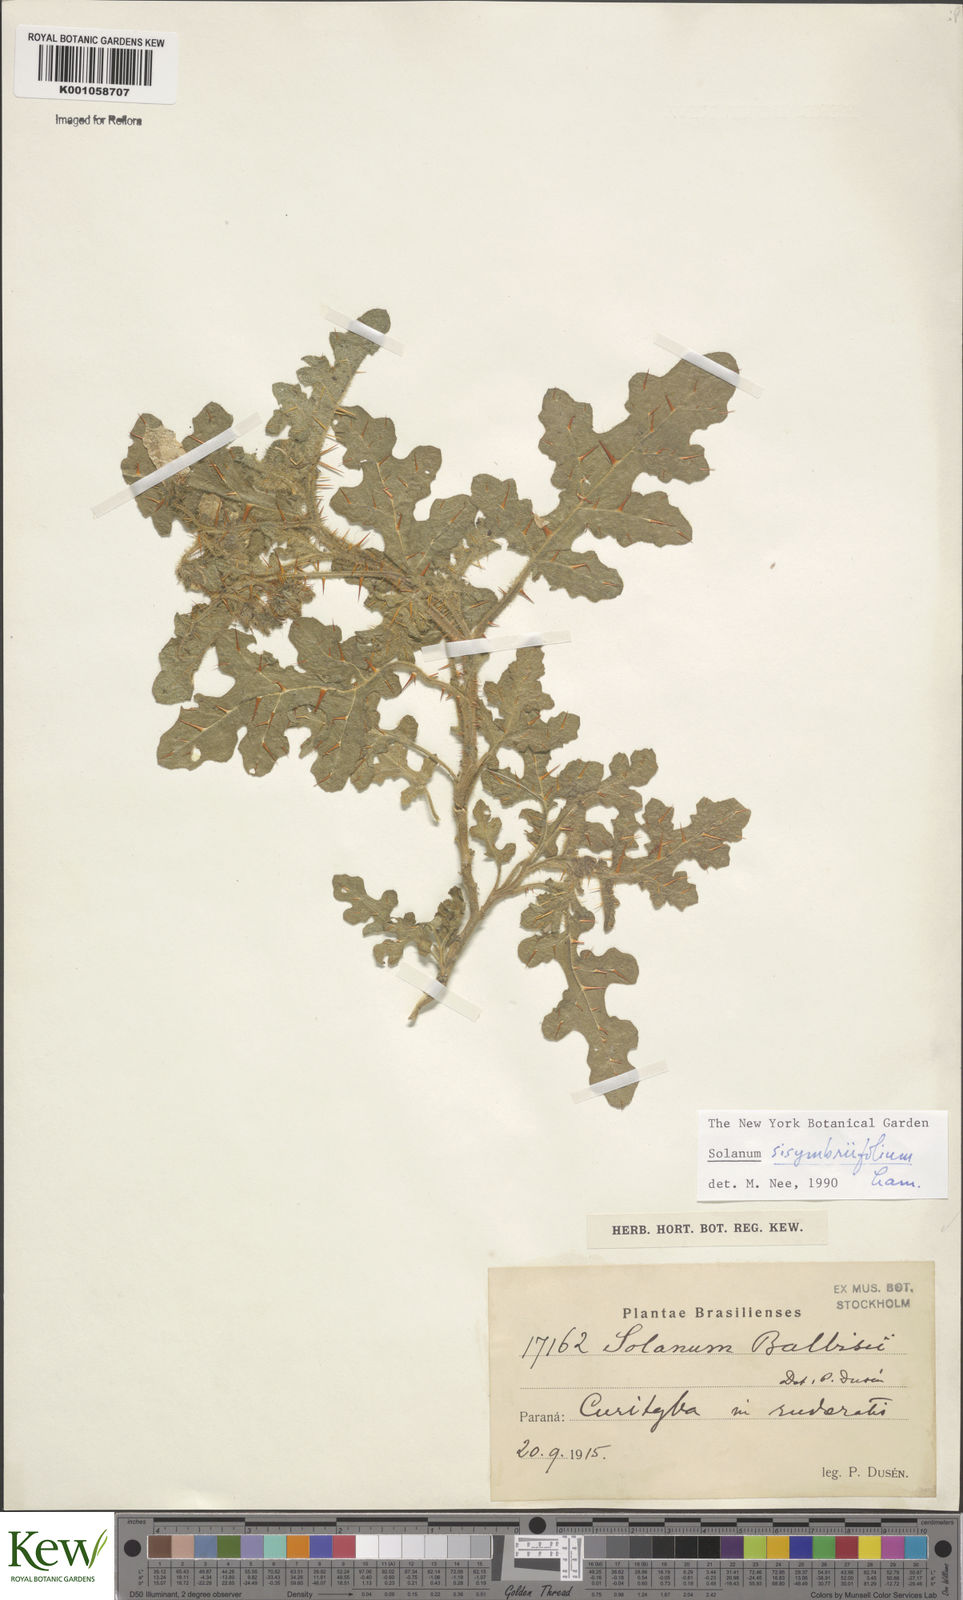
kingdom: Plantae
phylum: Tracheophyta
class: Magnoliopsida
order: Solanales
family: Solanaceae
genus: Solanum
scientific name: Solanum sisymbriifolium
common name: Red buffalo-bur
